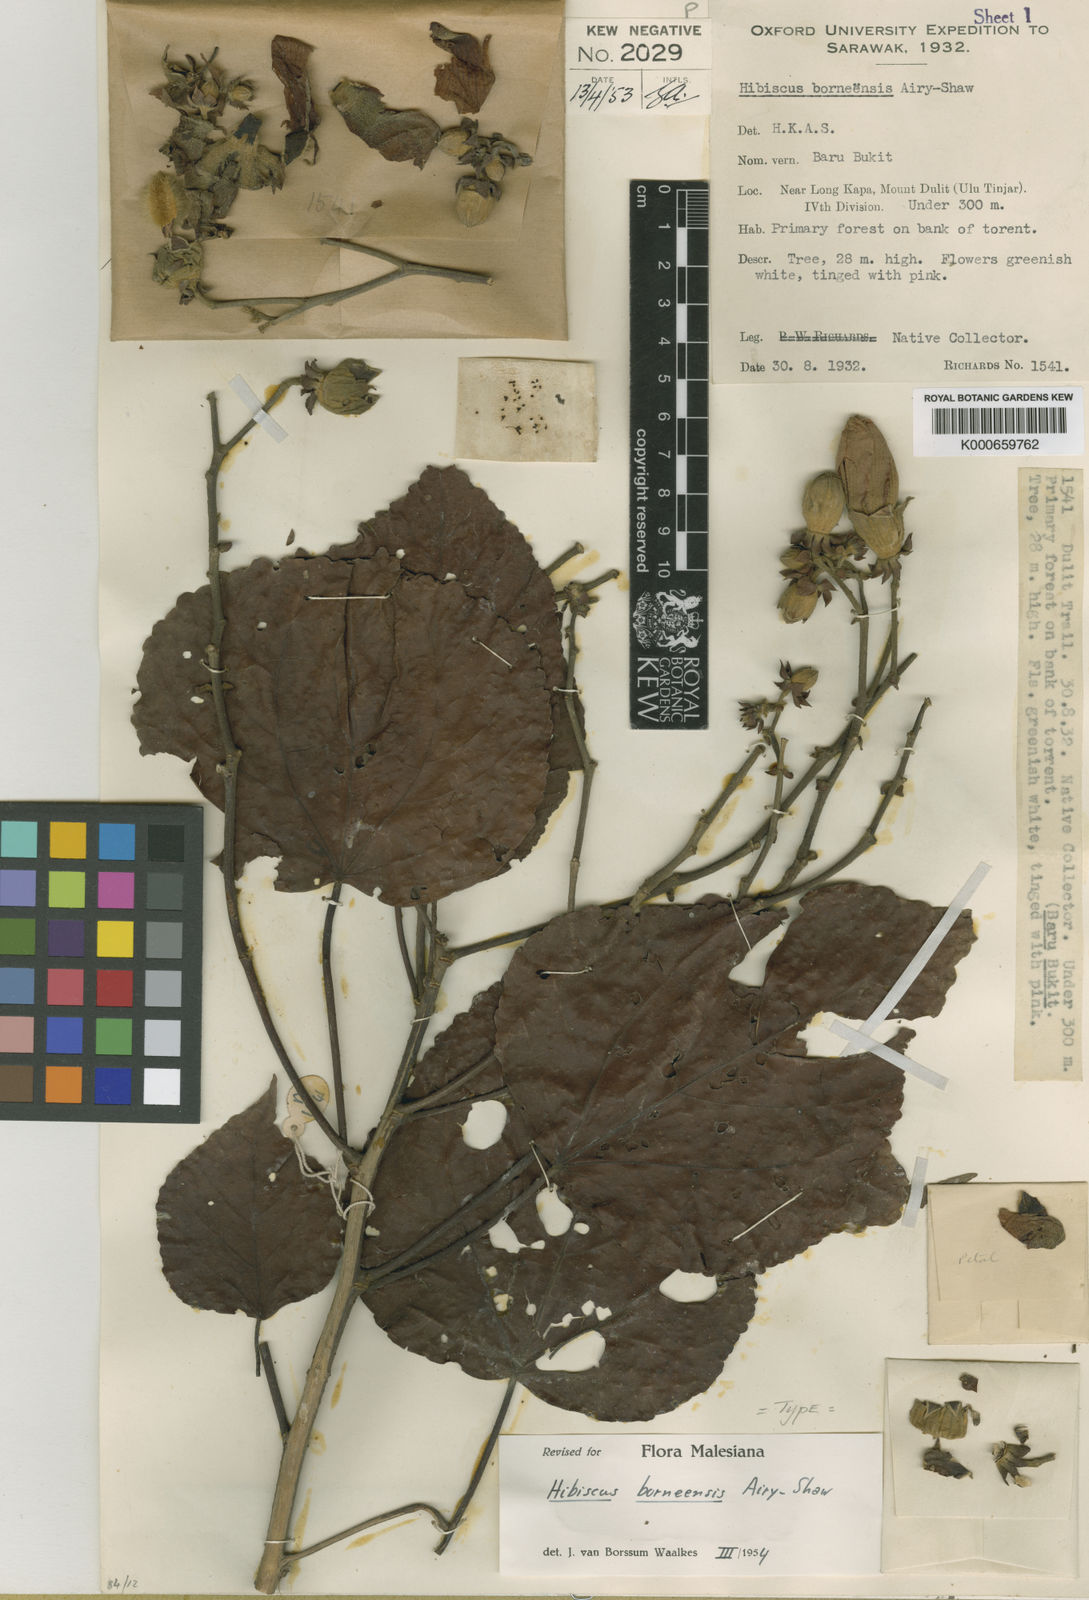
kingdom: Plantae
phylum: Tracheophyta
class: Magnoliopsida
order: Malvales
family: Malvaceae
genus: Talipariti
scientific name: Talipariti borneense
